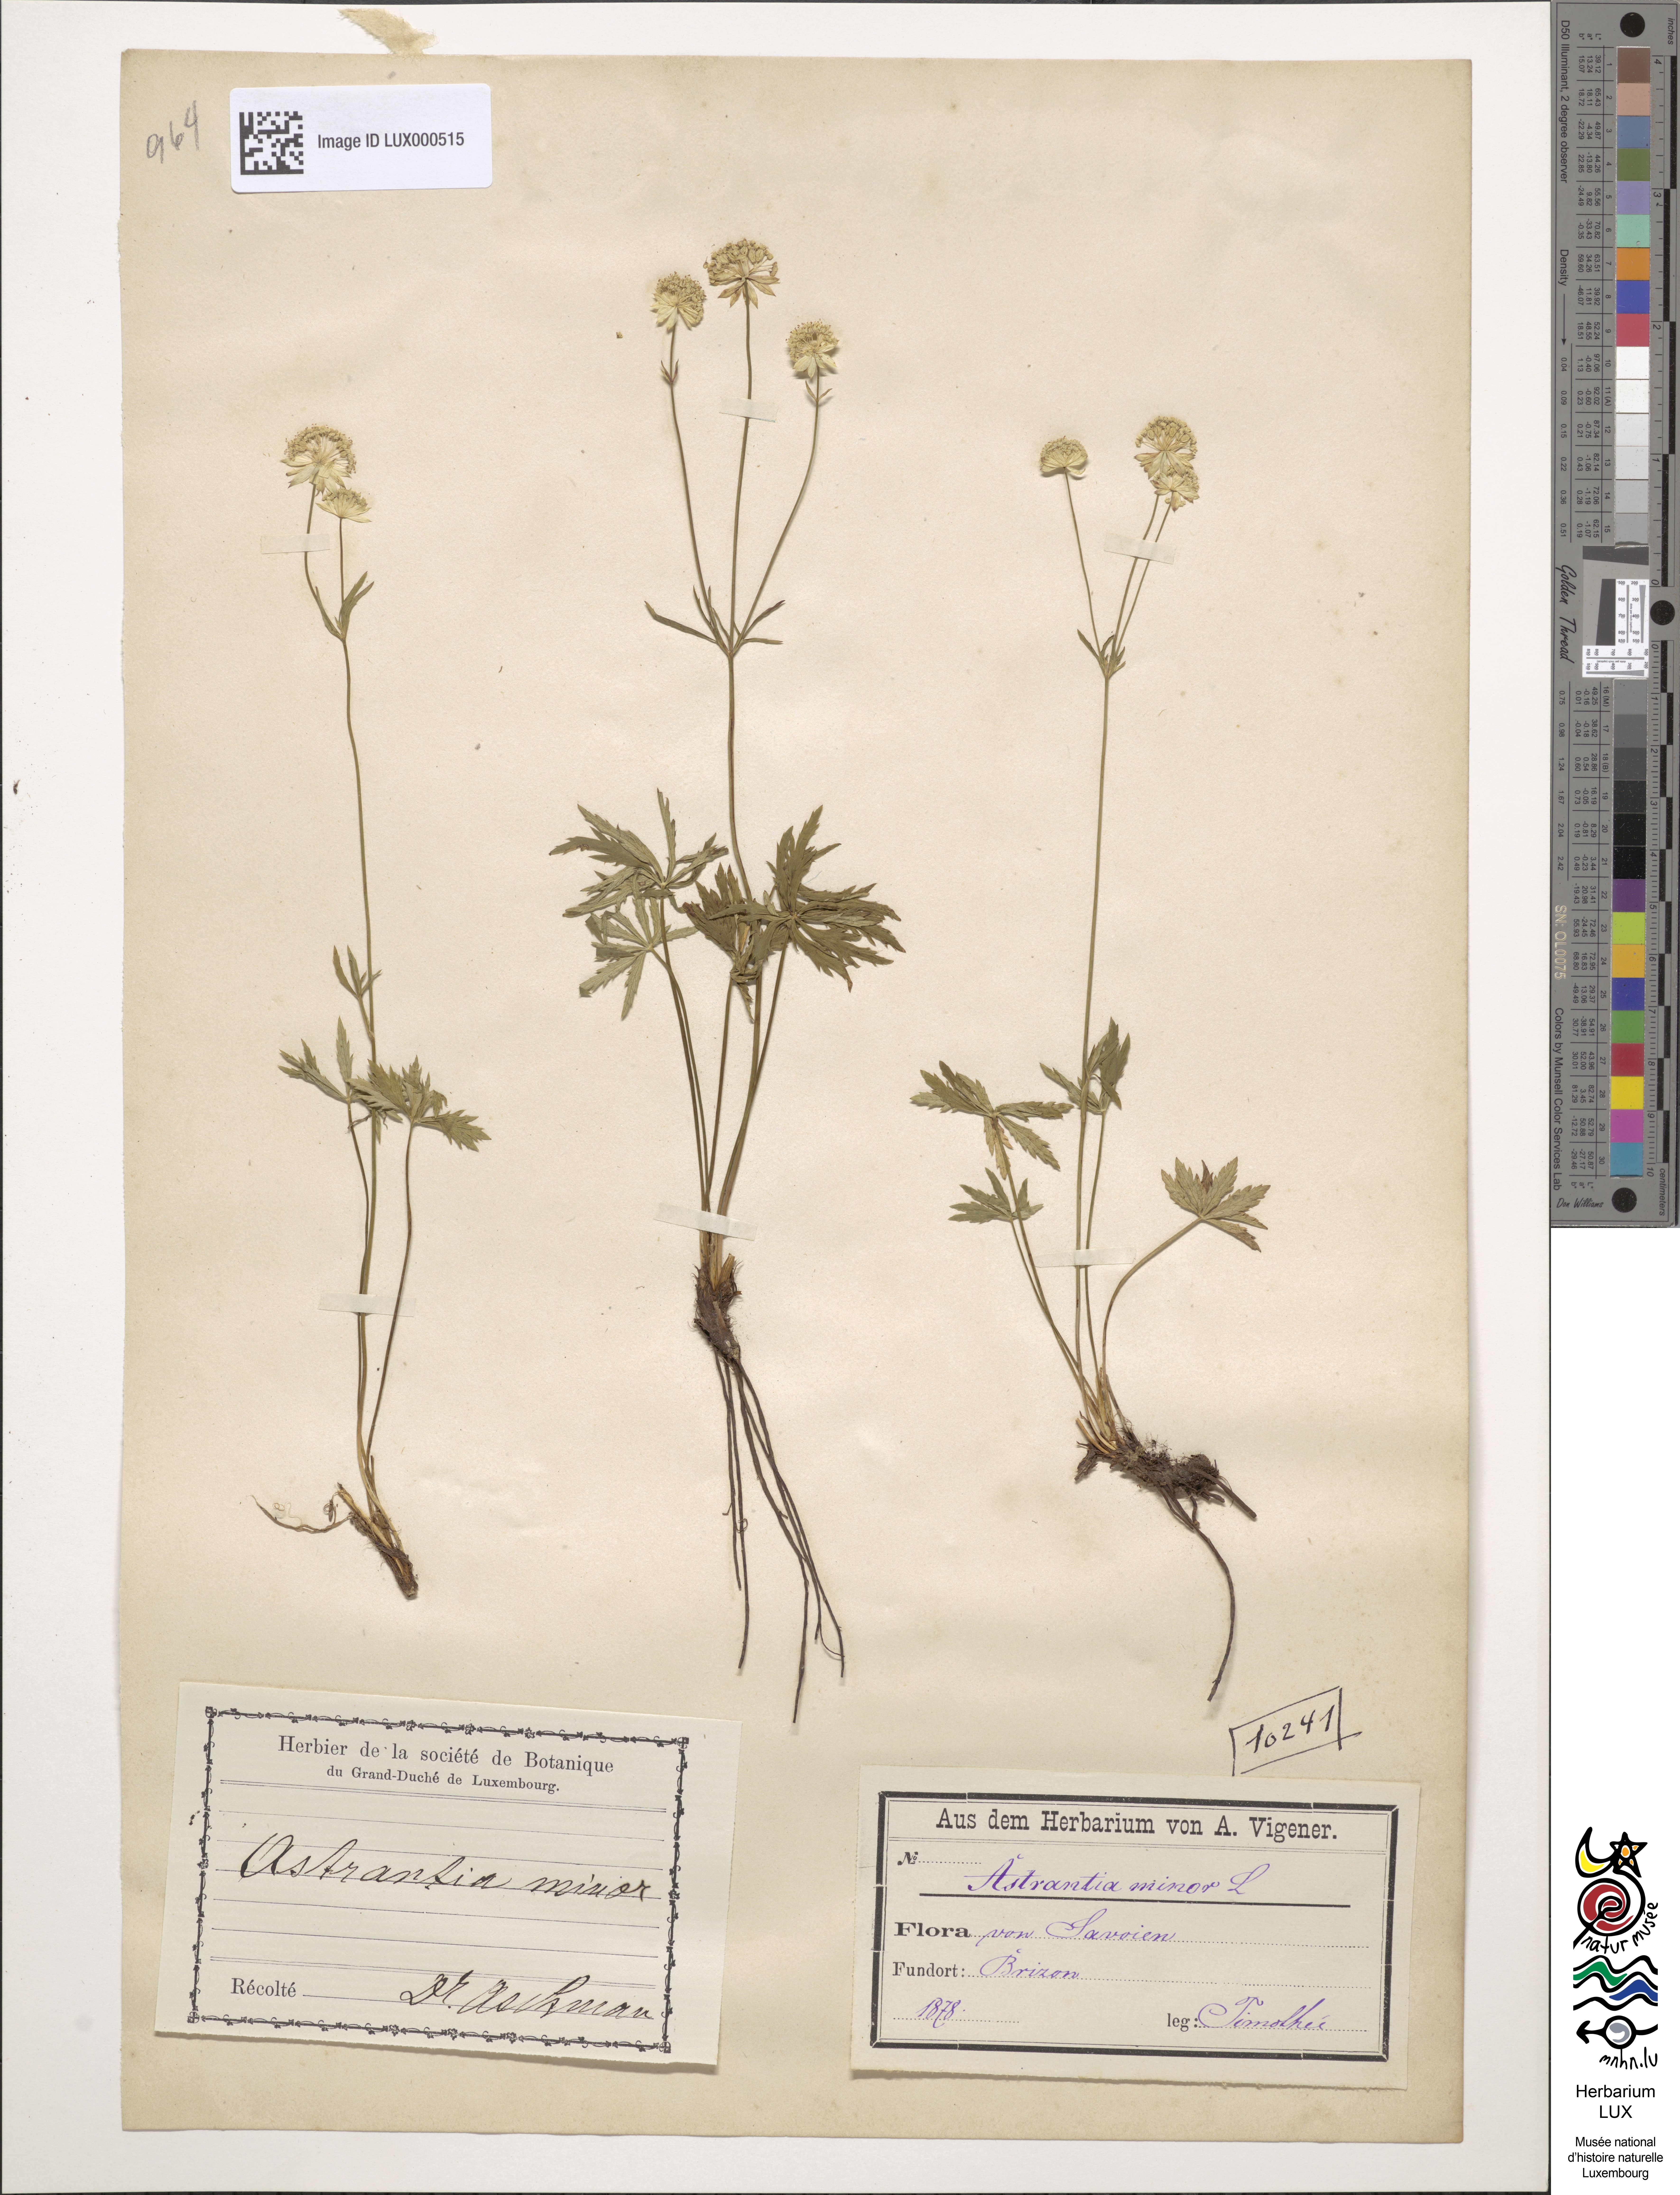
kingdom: Plantae
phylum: Tracheophyta
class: Magnoliopsida
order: Apiales
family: Apiaceae
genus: Astrantia
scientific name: Astrantia minor
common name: Lesser masterwort
